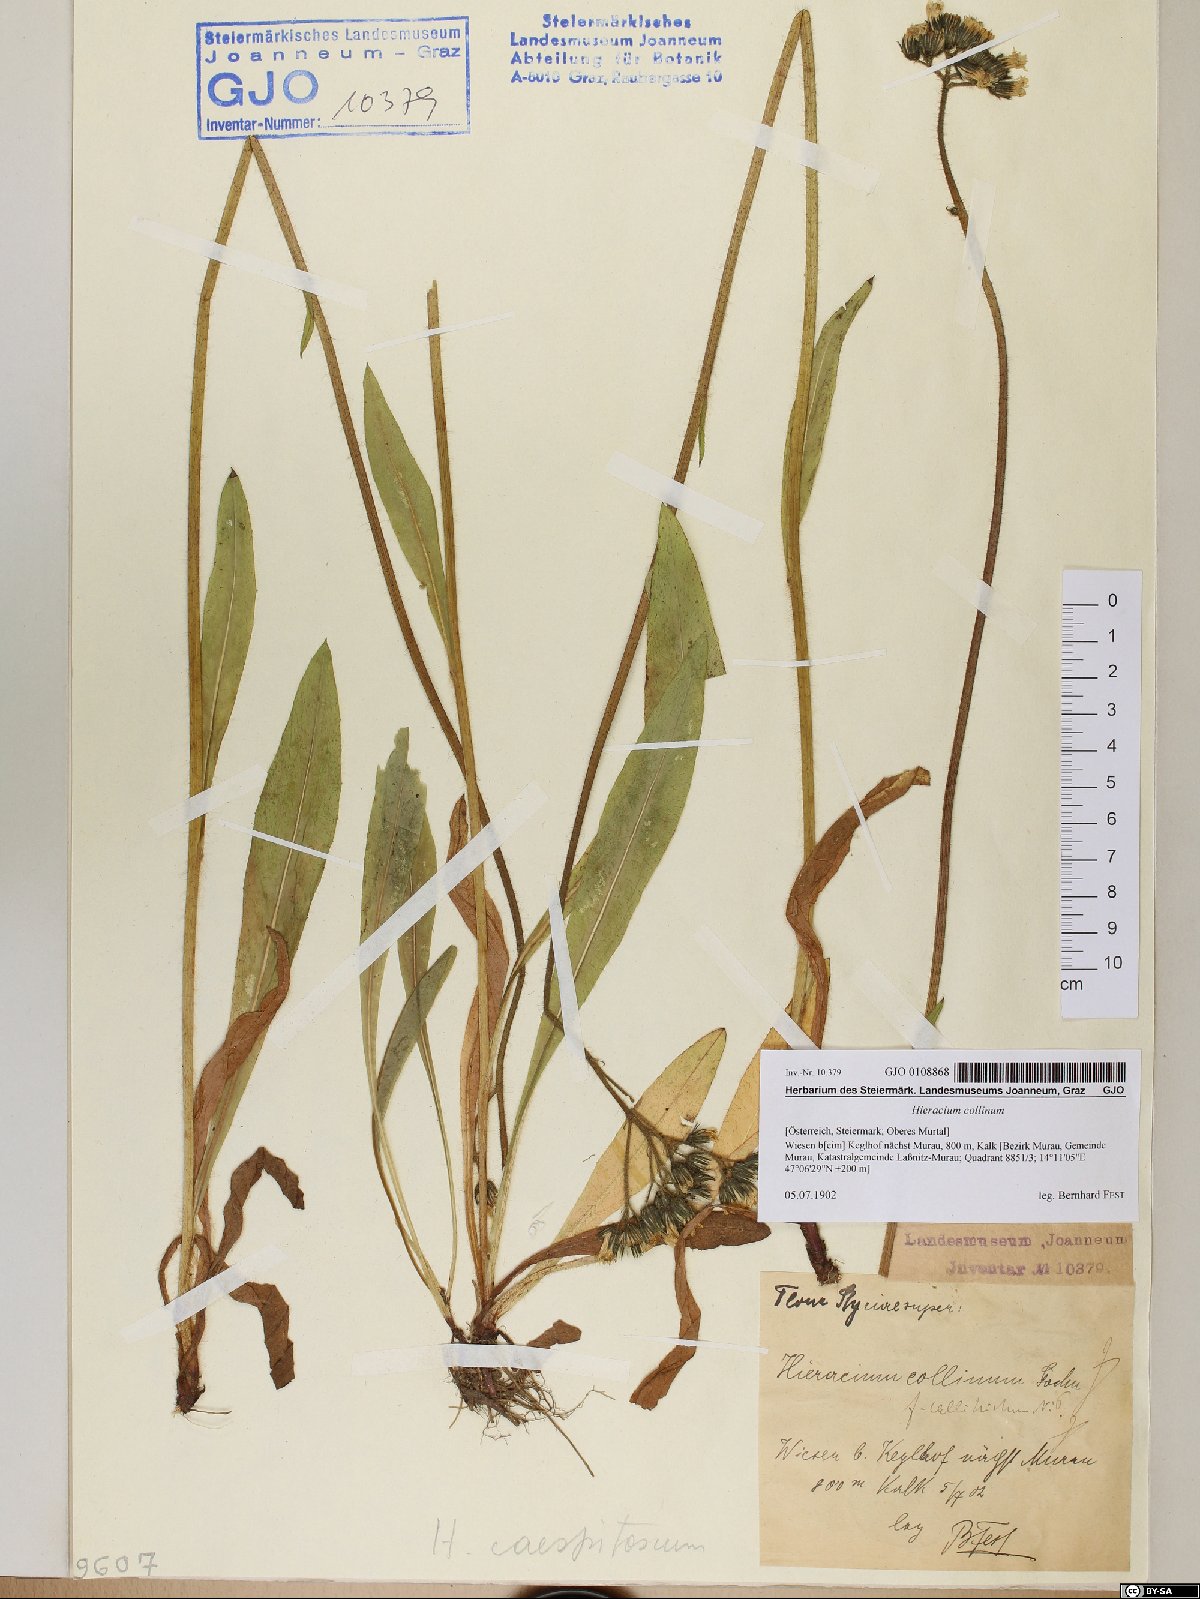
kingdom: Plantae
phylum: Tracheophyta
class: Magnoliopsida
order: Asterales
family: Asteraceae
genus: Pilosella
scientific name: Pilosella cymosa
